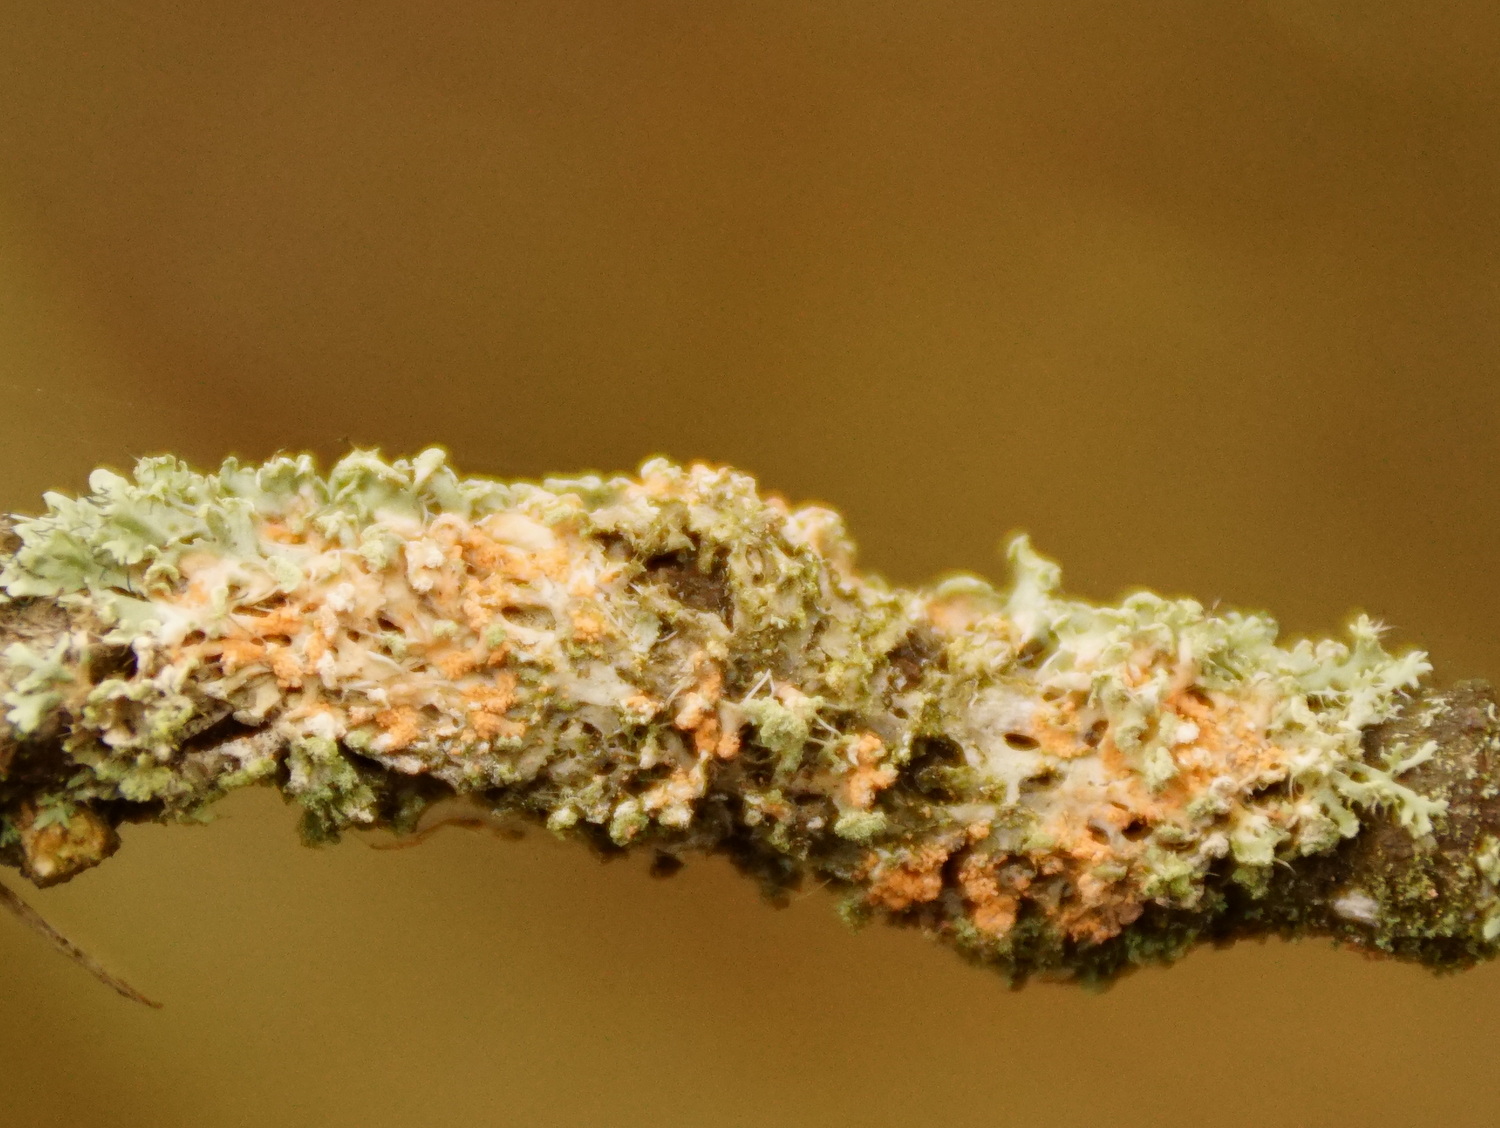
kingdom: Fungi
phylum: Basidiomycota
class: Agaricomycetes
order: Corticiales
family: Corticiaceae
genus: Erythricium
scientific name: Erythricium aurantiacum
